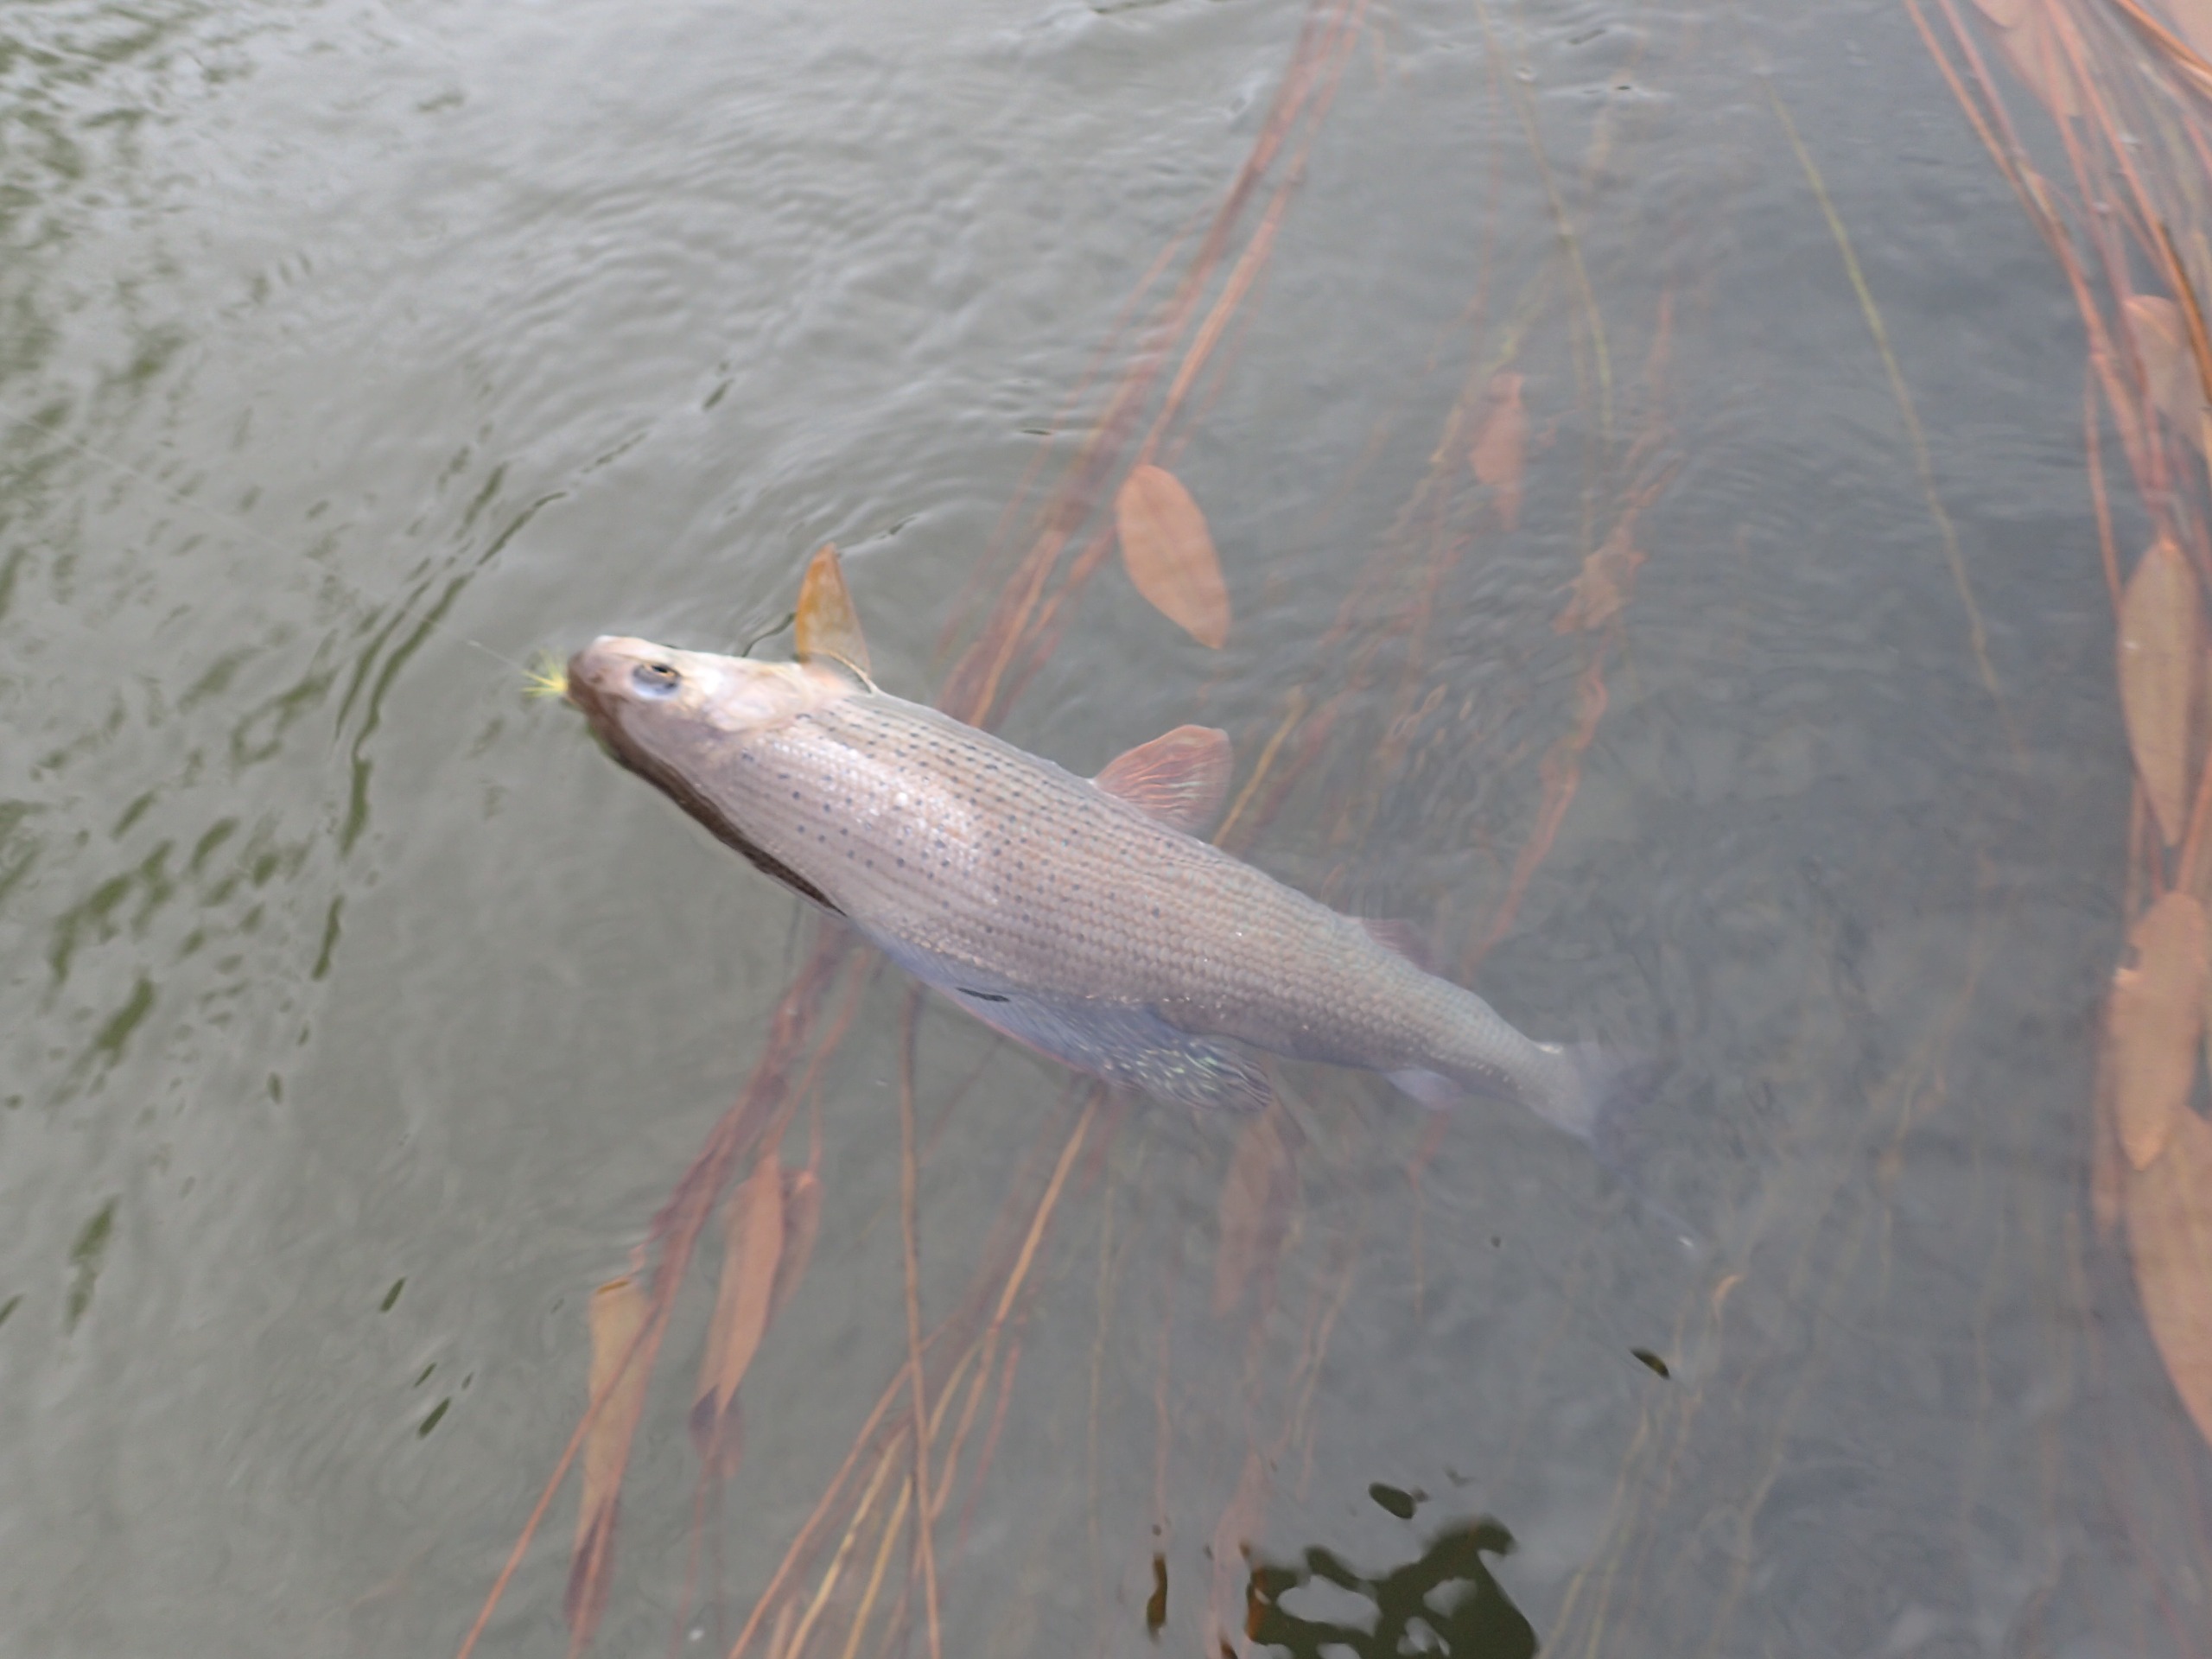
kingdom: Animalia
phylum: Chordata
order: Salmoniformes
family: Salmonidae
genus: Thymallus
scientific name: Thymallus thymallus
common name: Stalling
